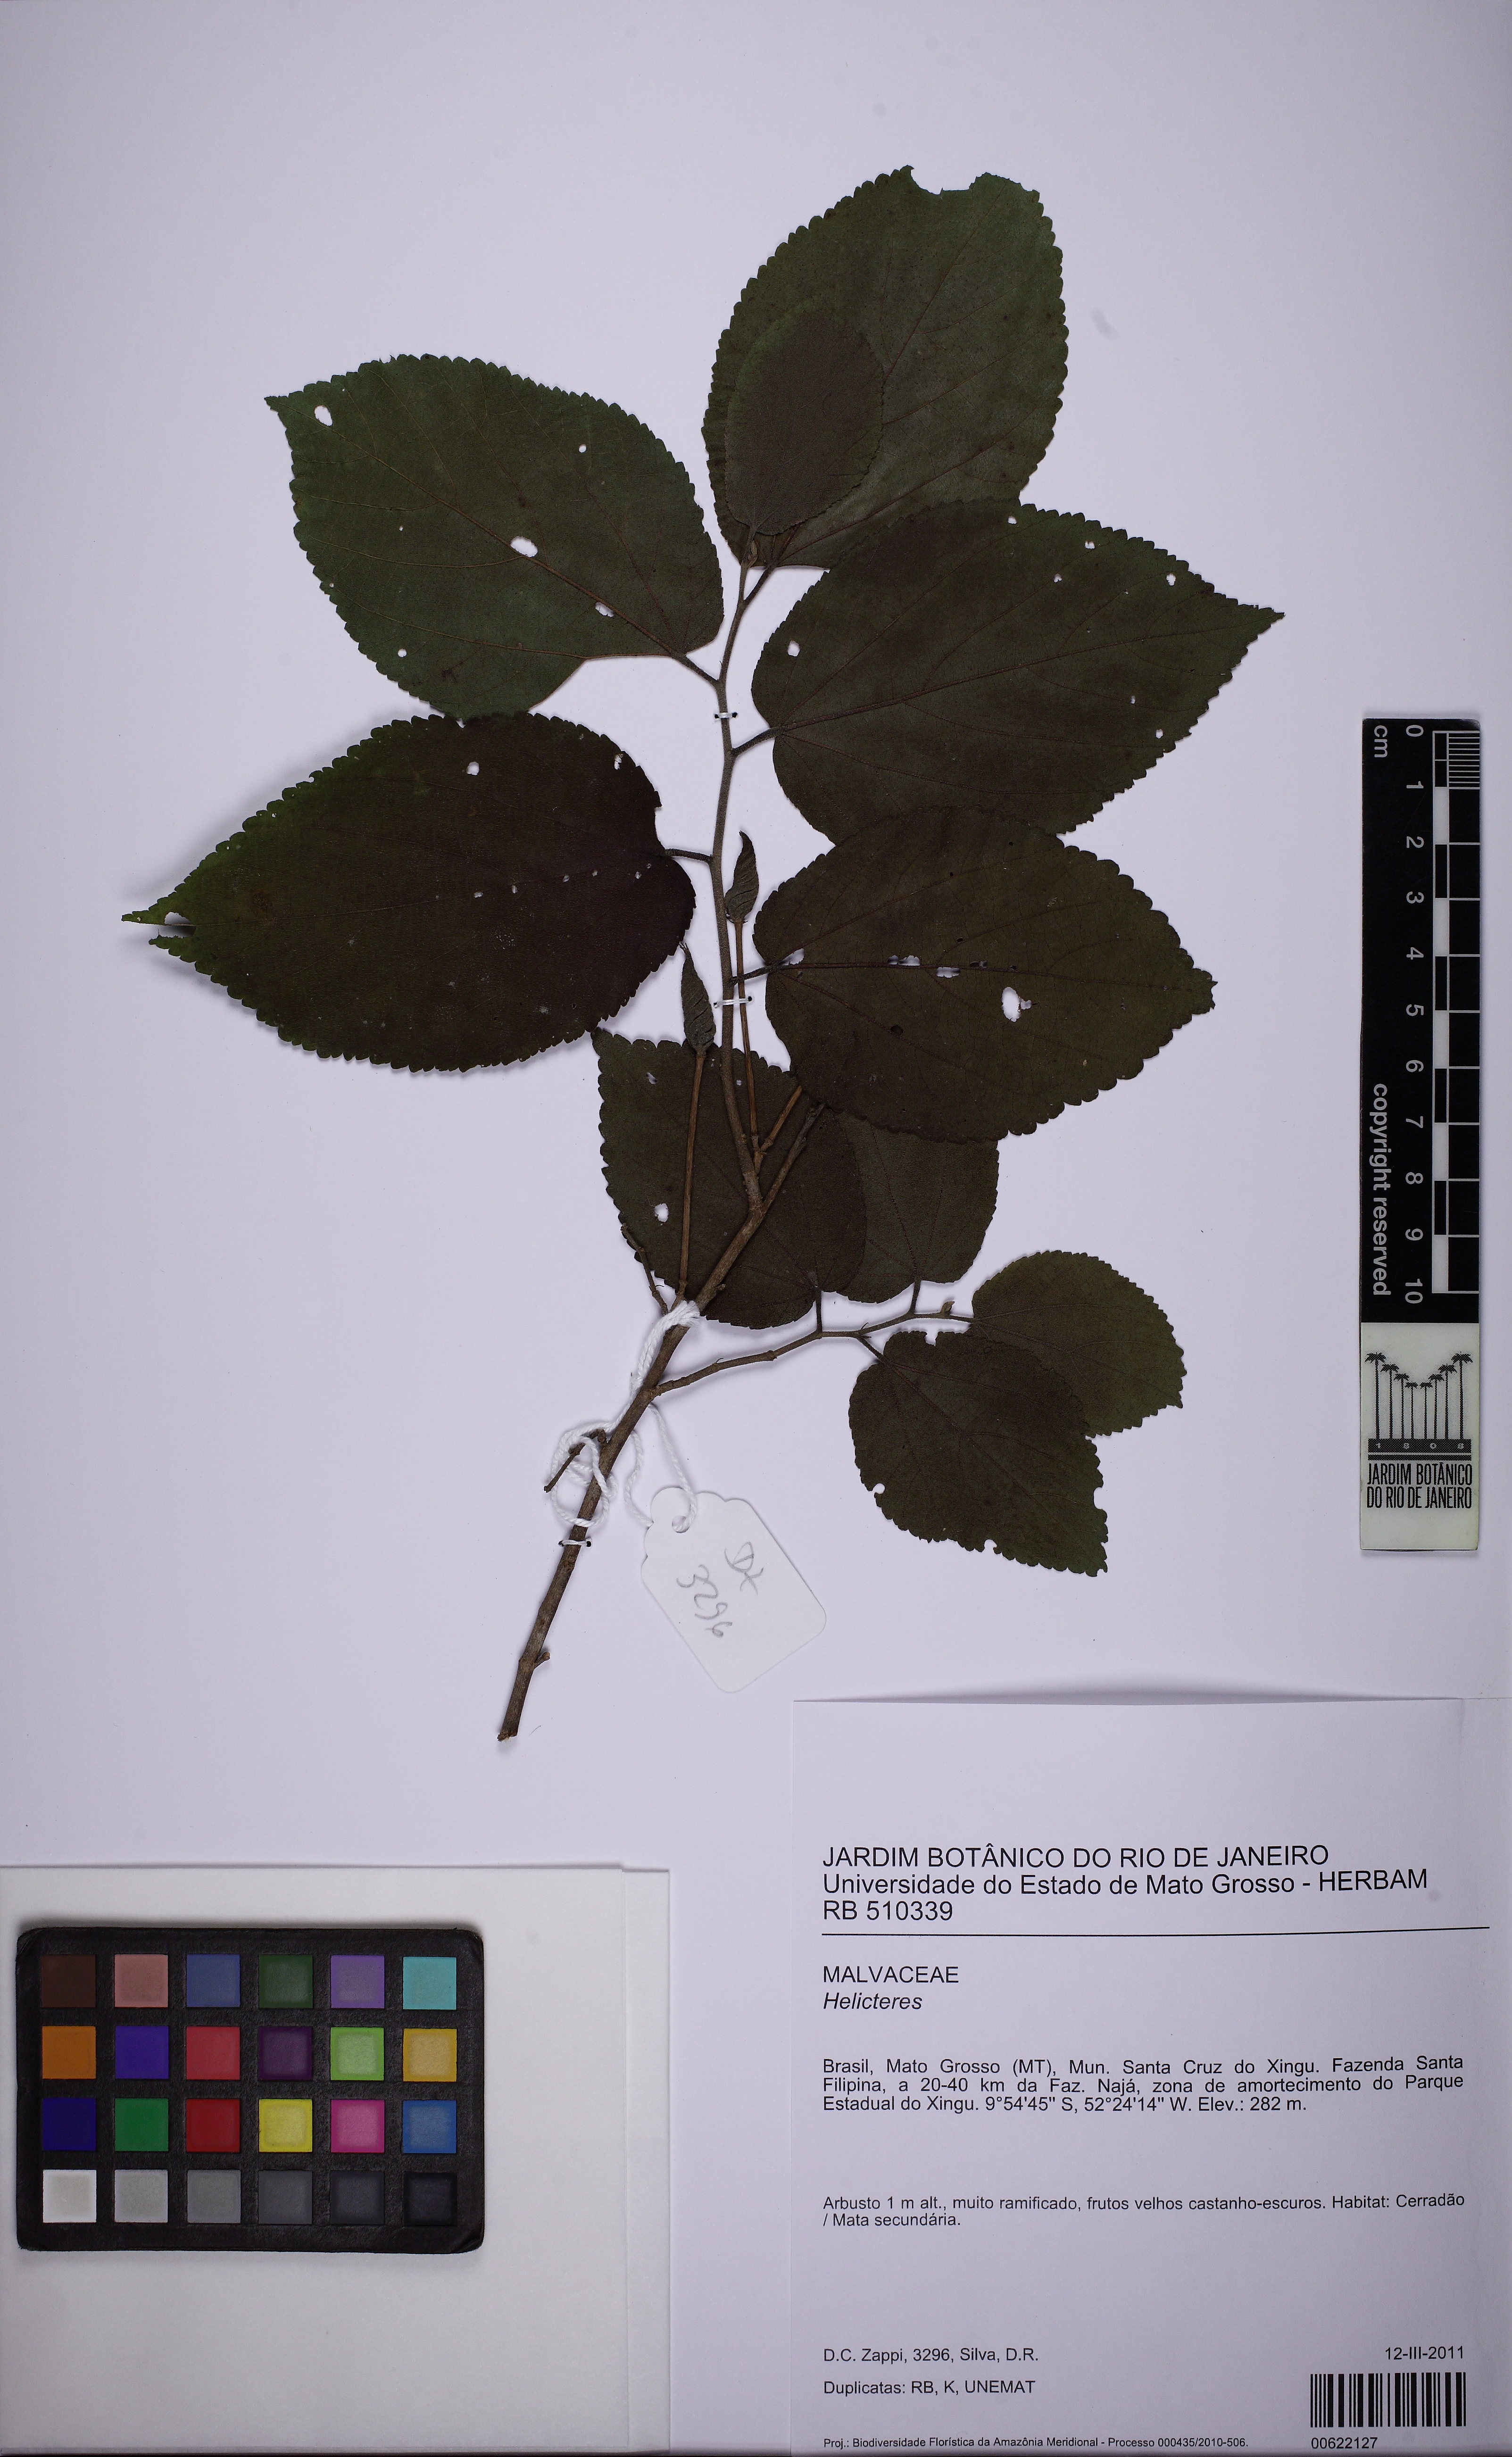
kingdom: Plantae
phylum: Tracheophyta
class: Magnoliopsida
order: Malvales
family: Malvaceae
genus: Helicteres
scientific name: Helicteres
